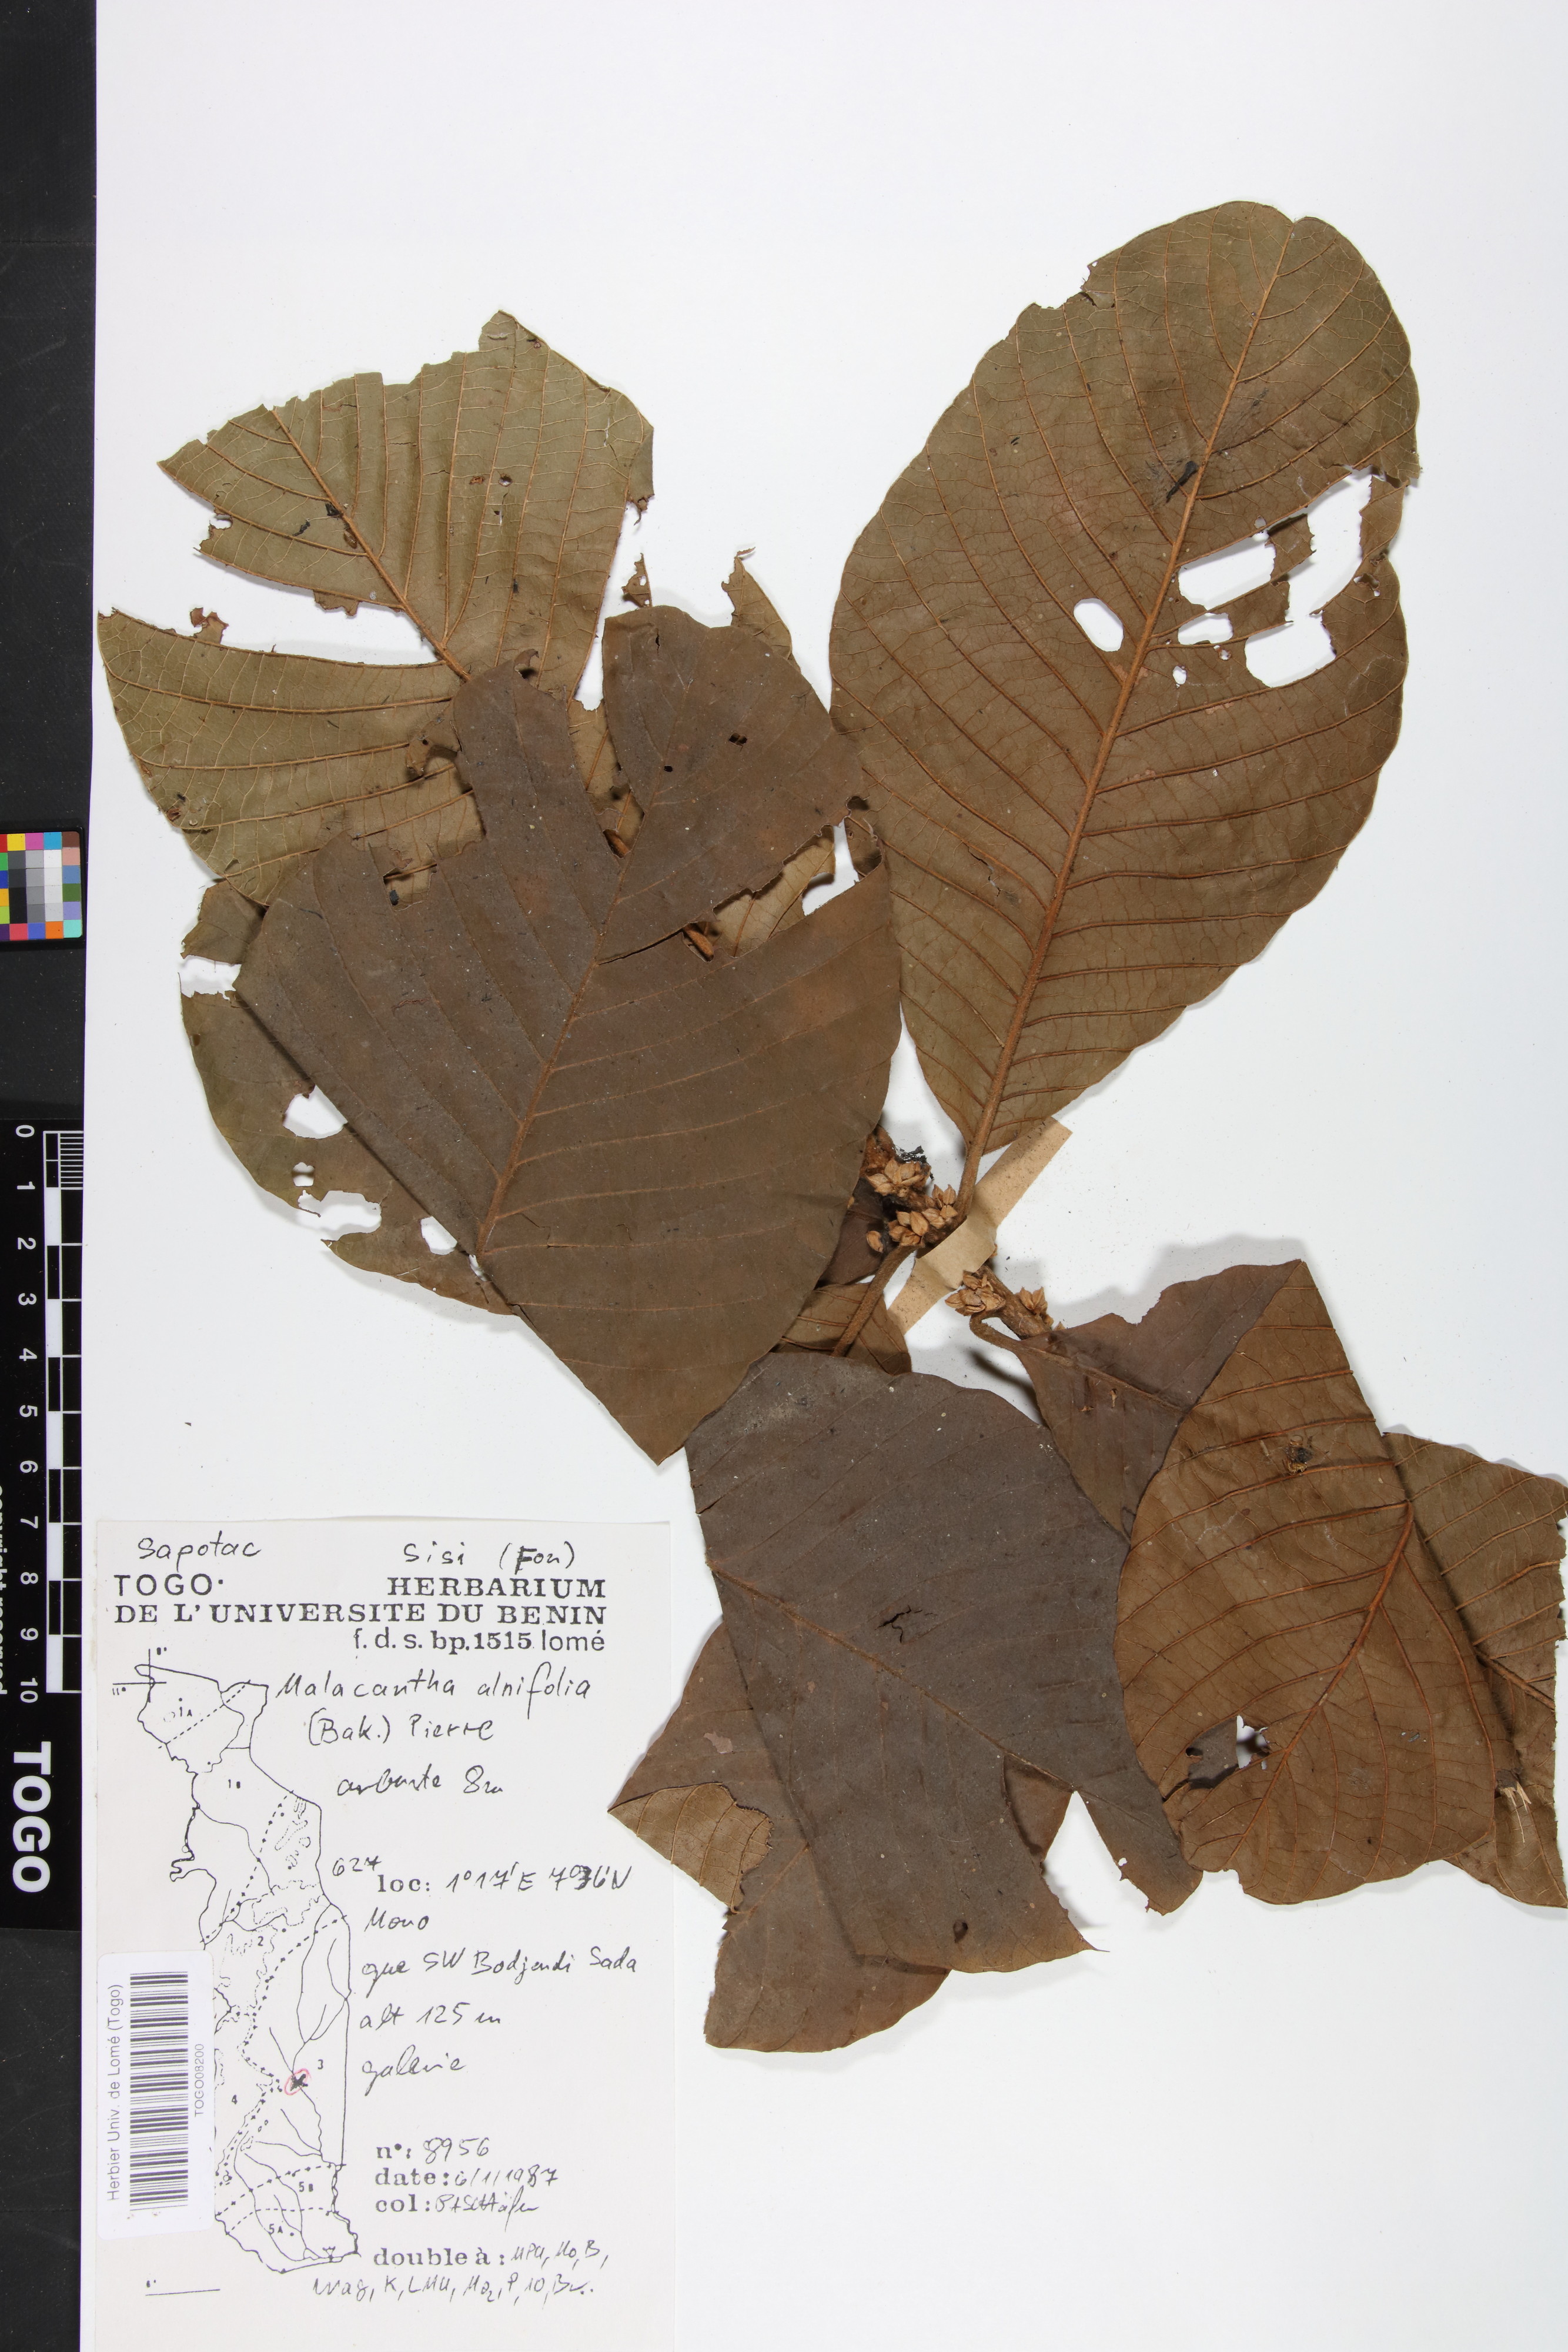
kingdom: Plantae
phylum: Tracheophyta
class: Magnoliopsida
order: Ericales
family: Sapotaceae
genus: Malacantha
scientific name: Malacantha alnifolia
